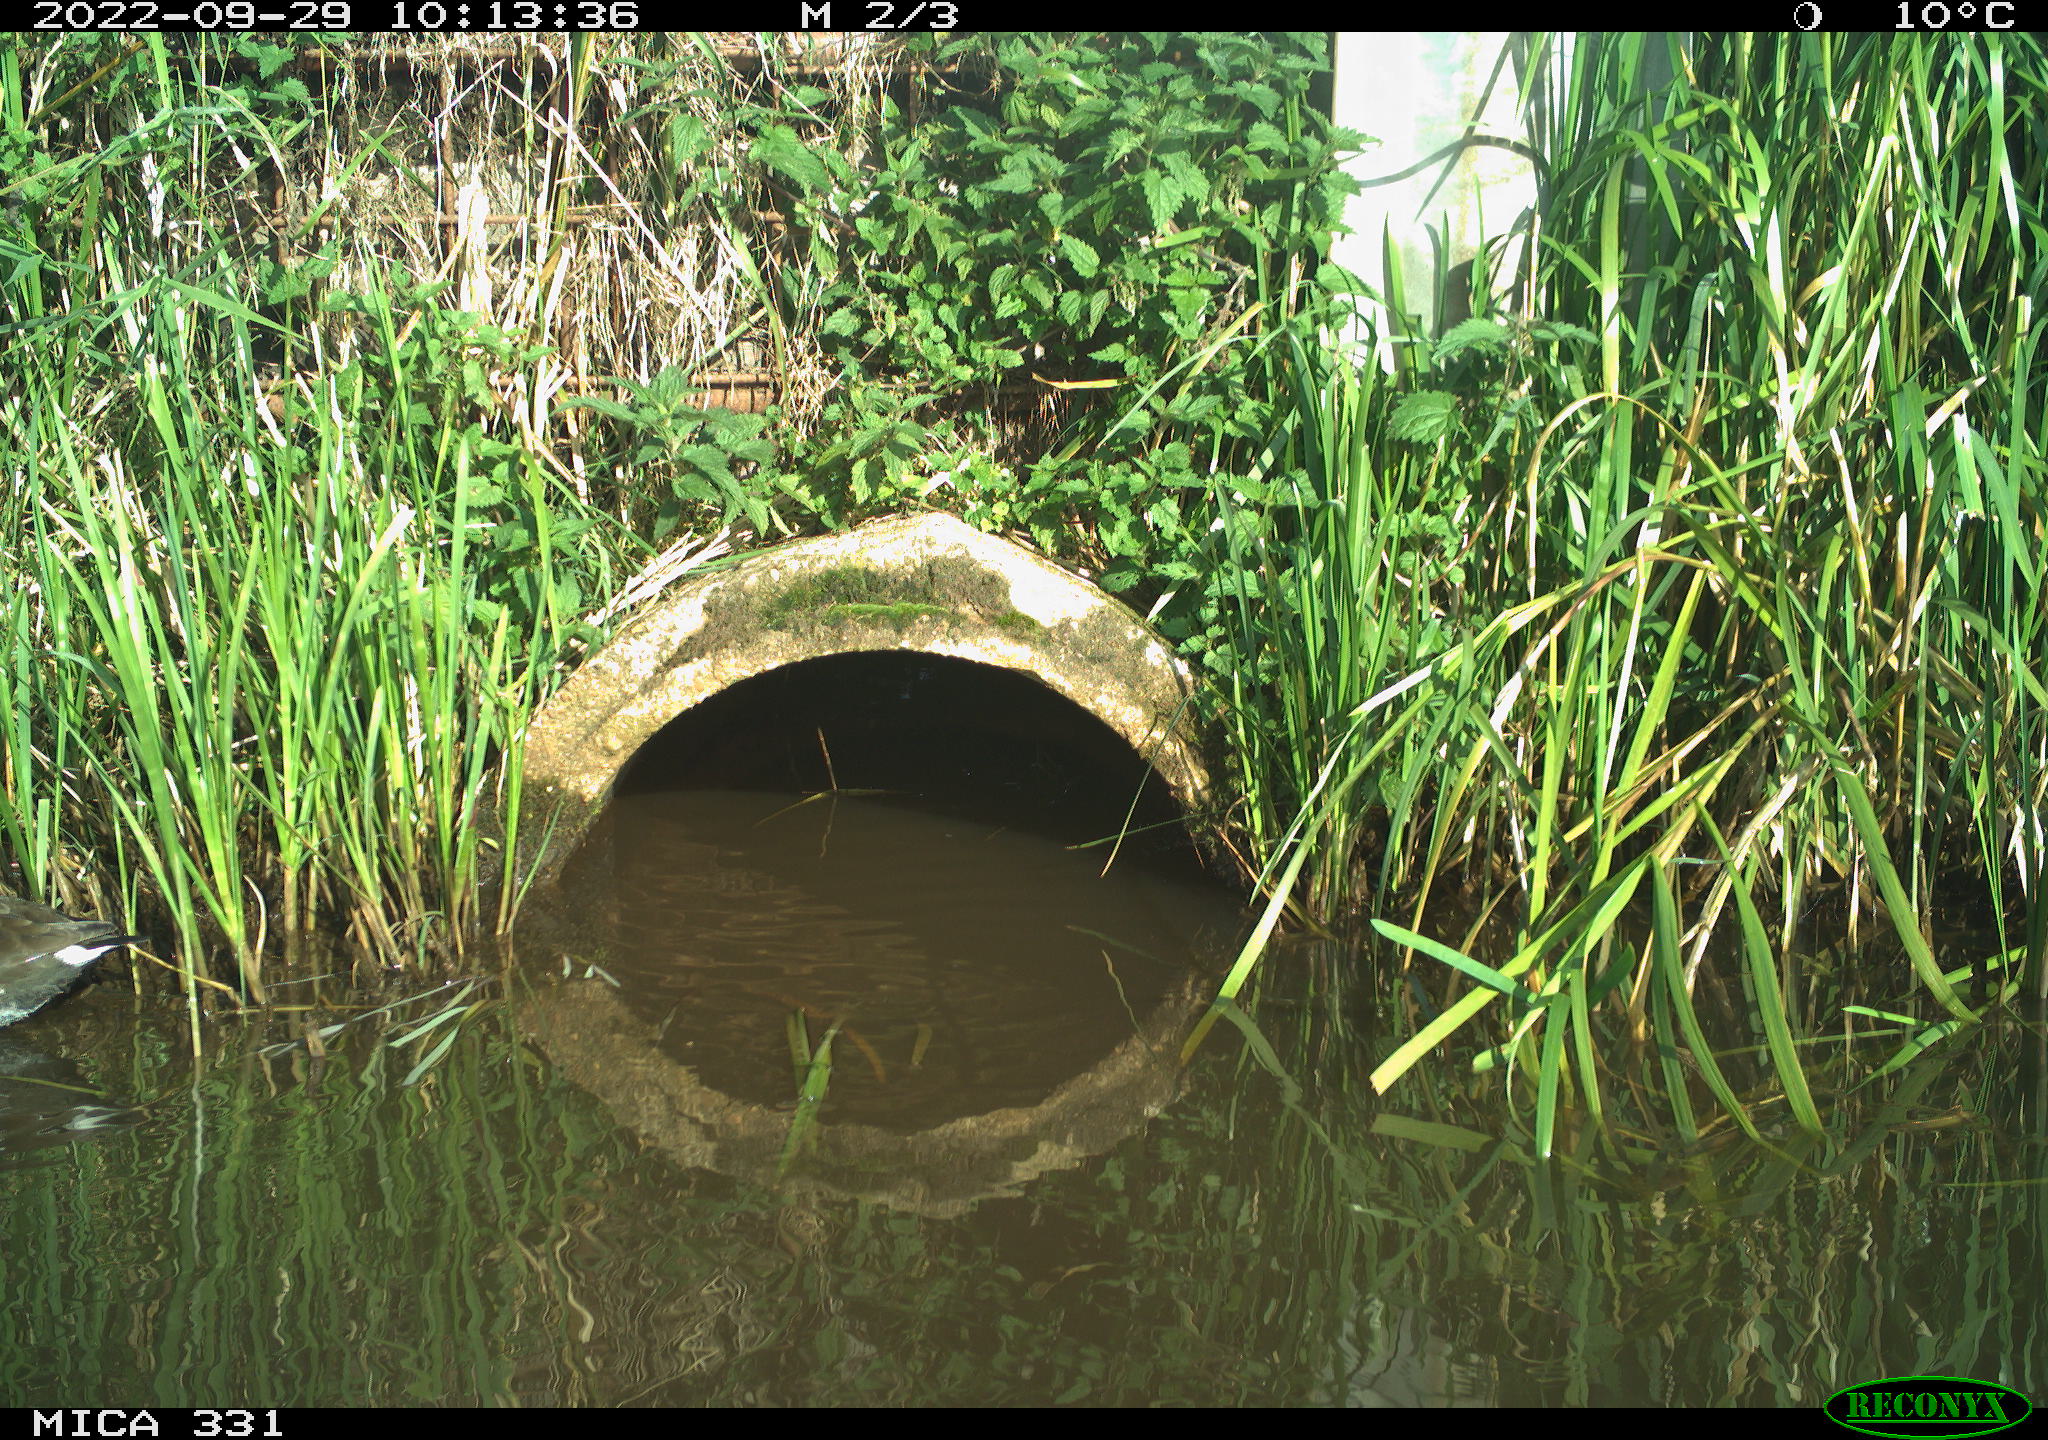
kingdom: Animalia
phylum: Chordata
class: Aves
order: Gruiformes
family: Rallidae
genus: Gallinula
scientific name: Gallinula chloropus
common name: Common moorhen
